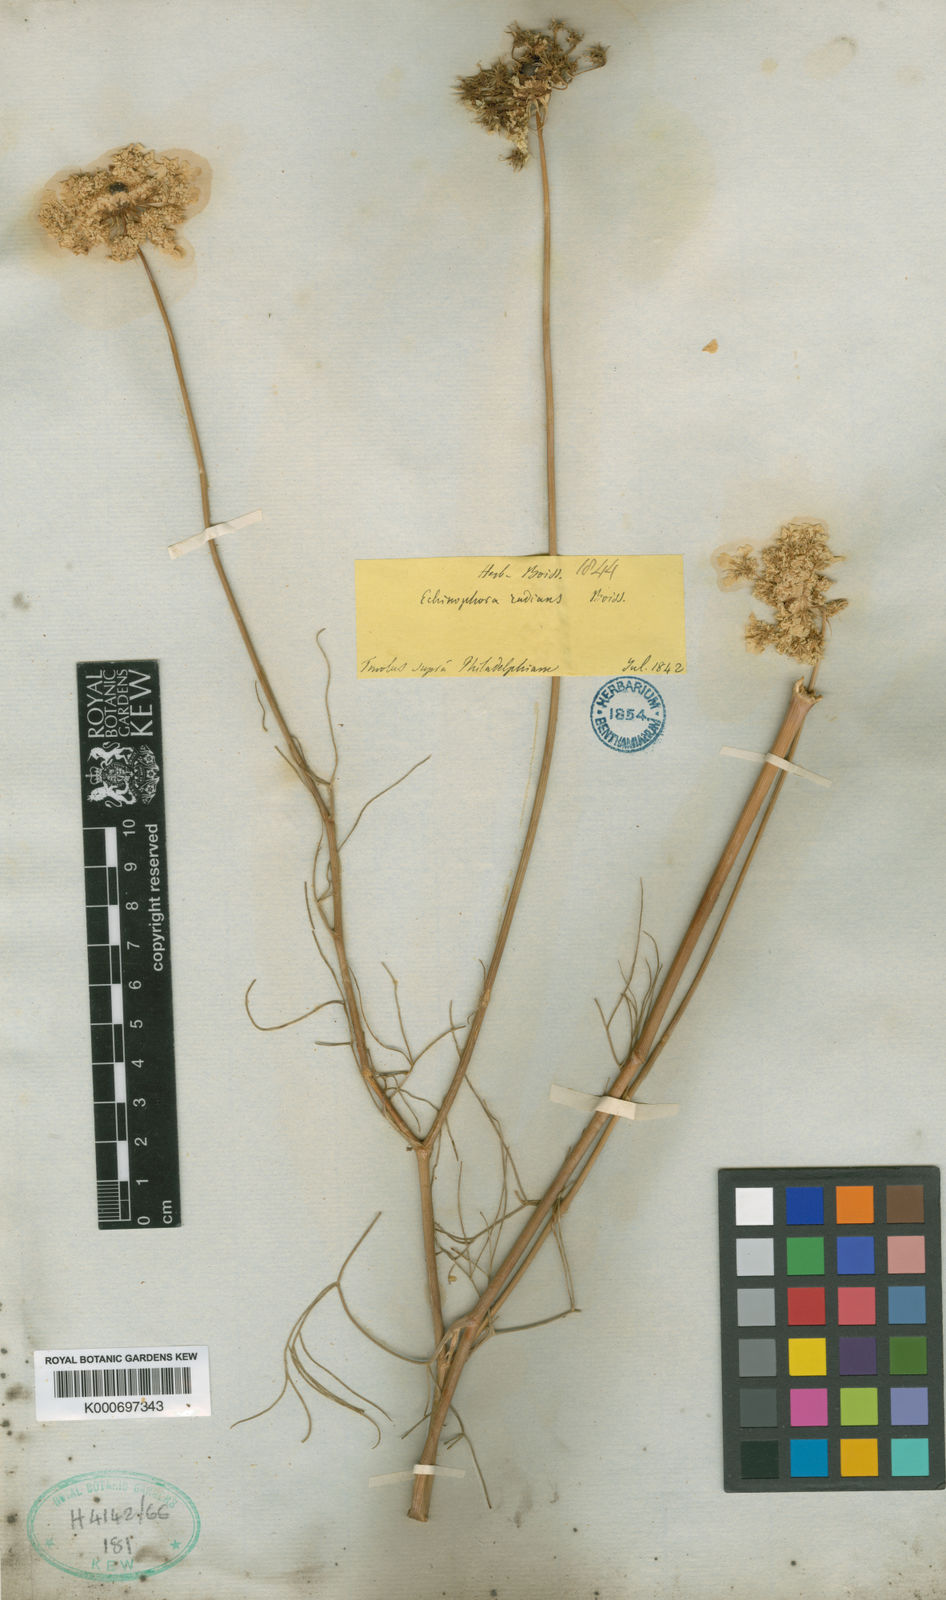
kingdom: Plantae
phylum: Tracheophyta
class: Magnoliopsida
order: Apiales
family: Apiaceae
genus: Echinophora
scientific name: Echinophora orientalis
